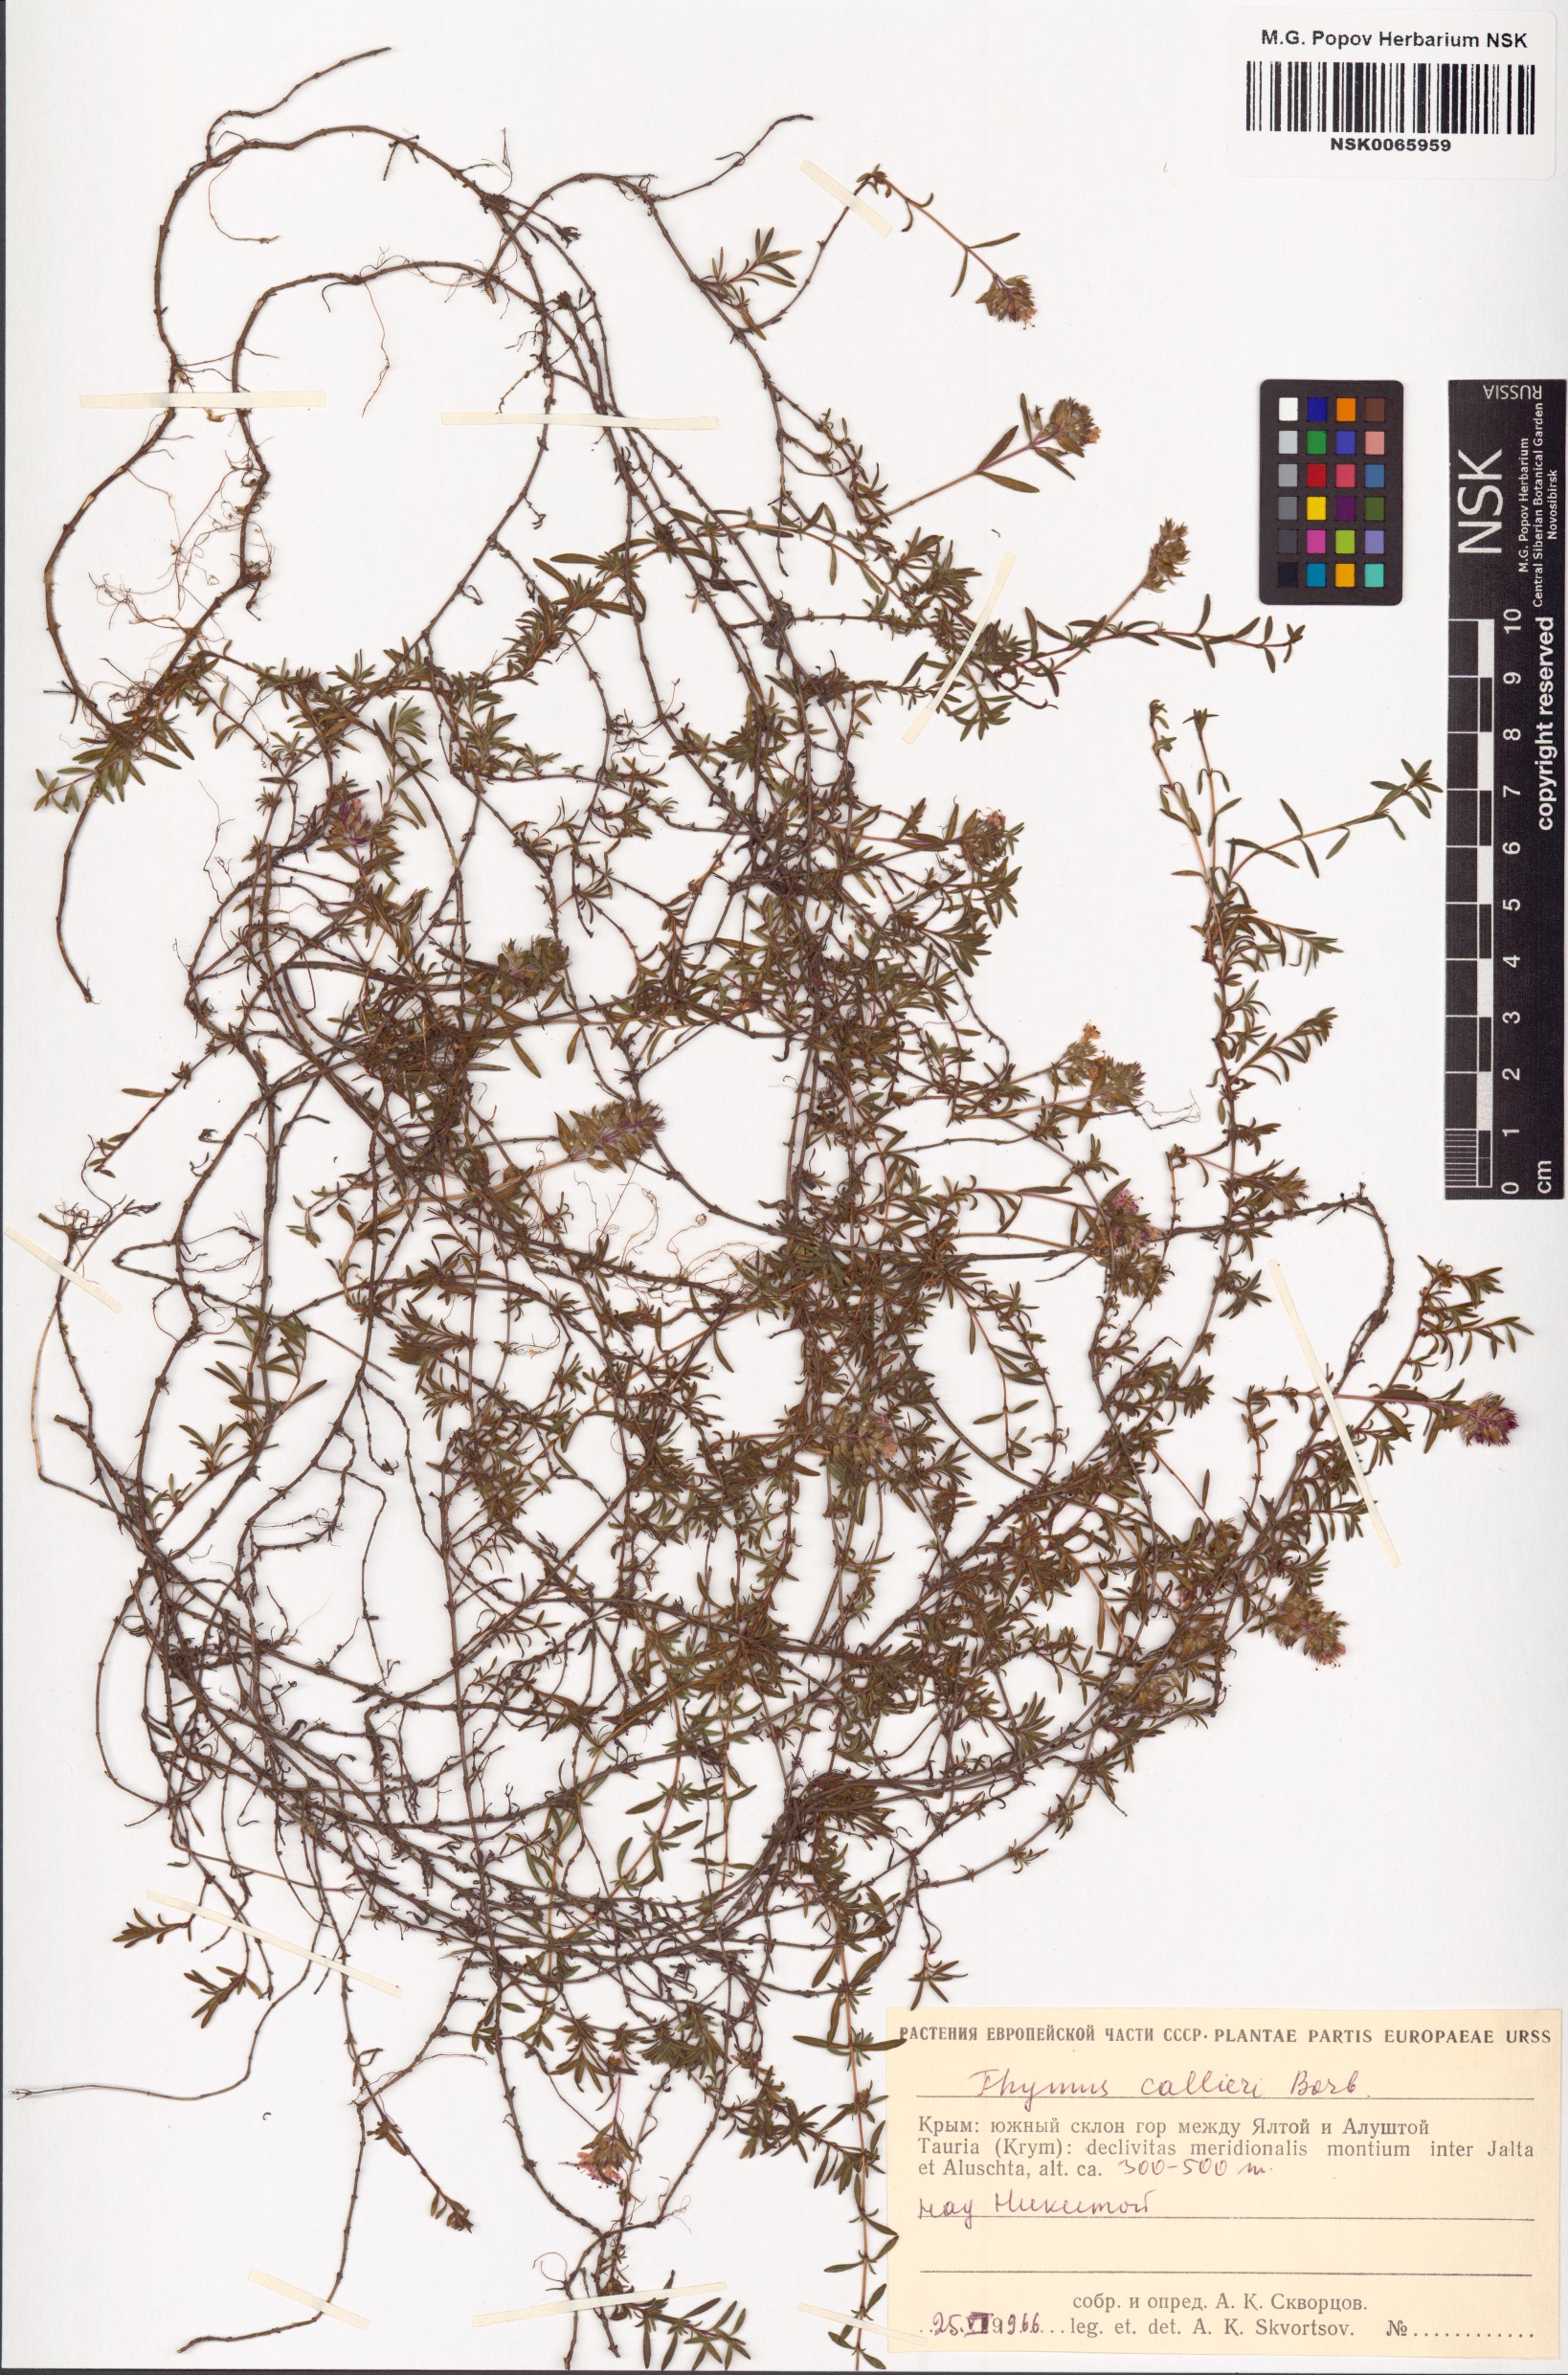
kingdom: Plantae
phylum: Tracheophyta
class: Magnoliopsida
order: Lamiales
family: Lamiaceae
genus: Thymus
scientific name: Thymus callieri
